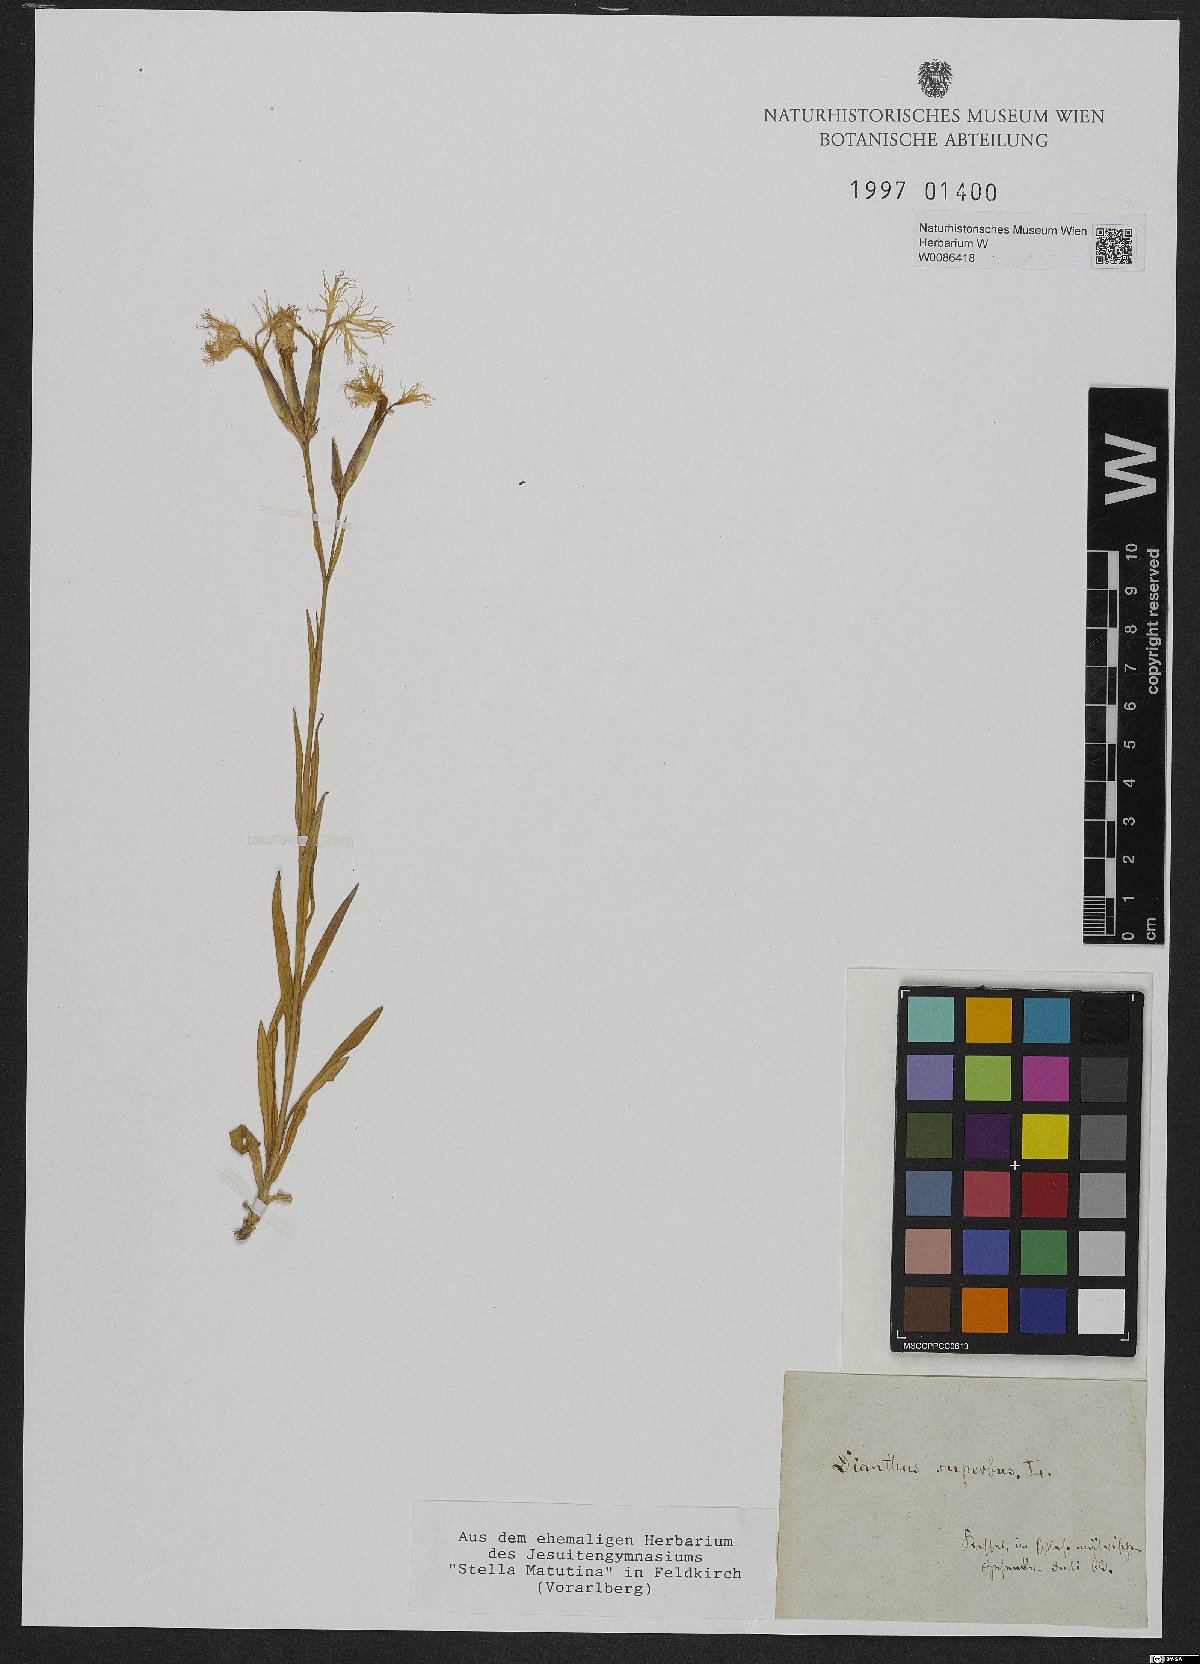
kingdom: Plantae
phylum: Tracheophyta
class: Magnoliopsida
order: Caryophyllales
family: Caryophyllaceae
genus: Dianthus
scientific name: Dianthus superbus
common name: Fringed pink
